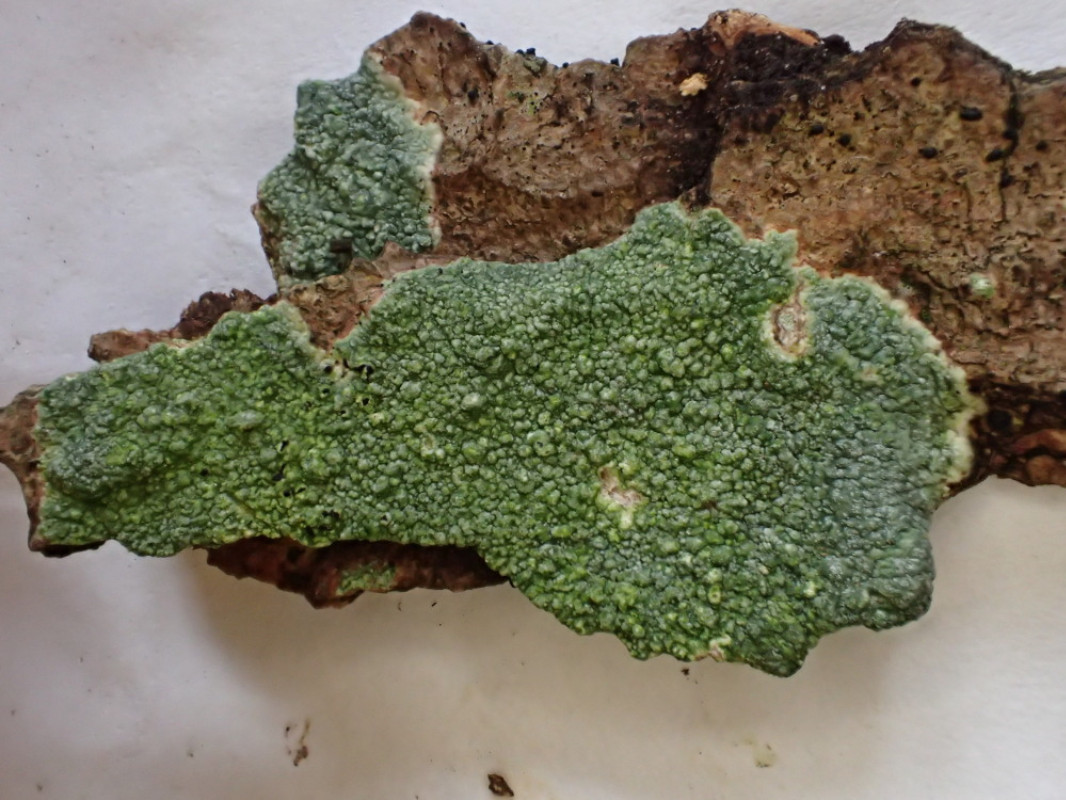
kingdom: Fungi
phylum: Ascomycota
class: Lecanoromycetes
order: Pertusariales
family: Pertusariaceae
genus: Pertusaria
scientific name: Pertusaria hymenea
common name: åben prikvortelav
